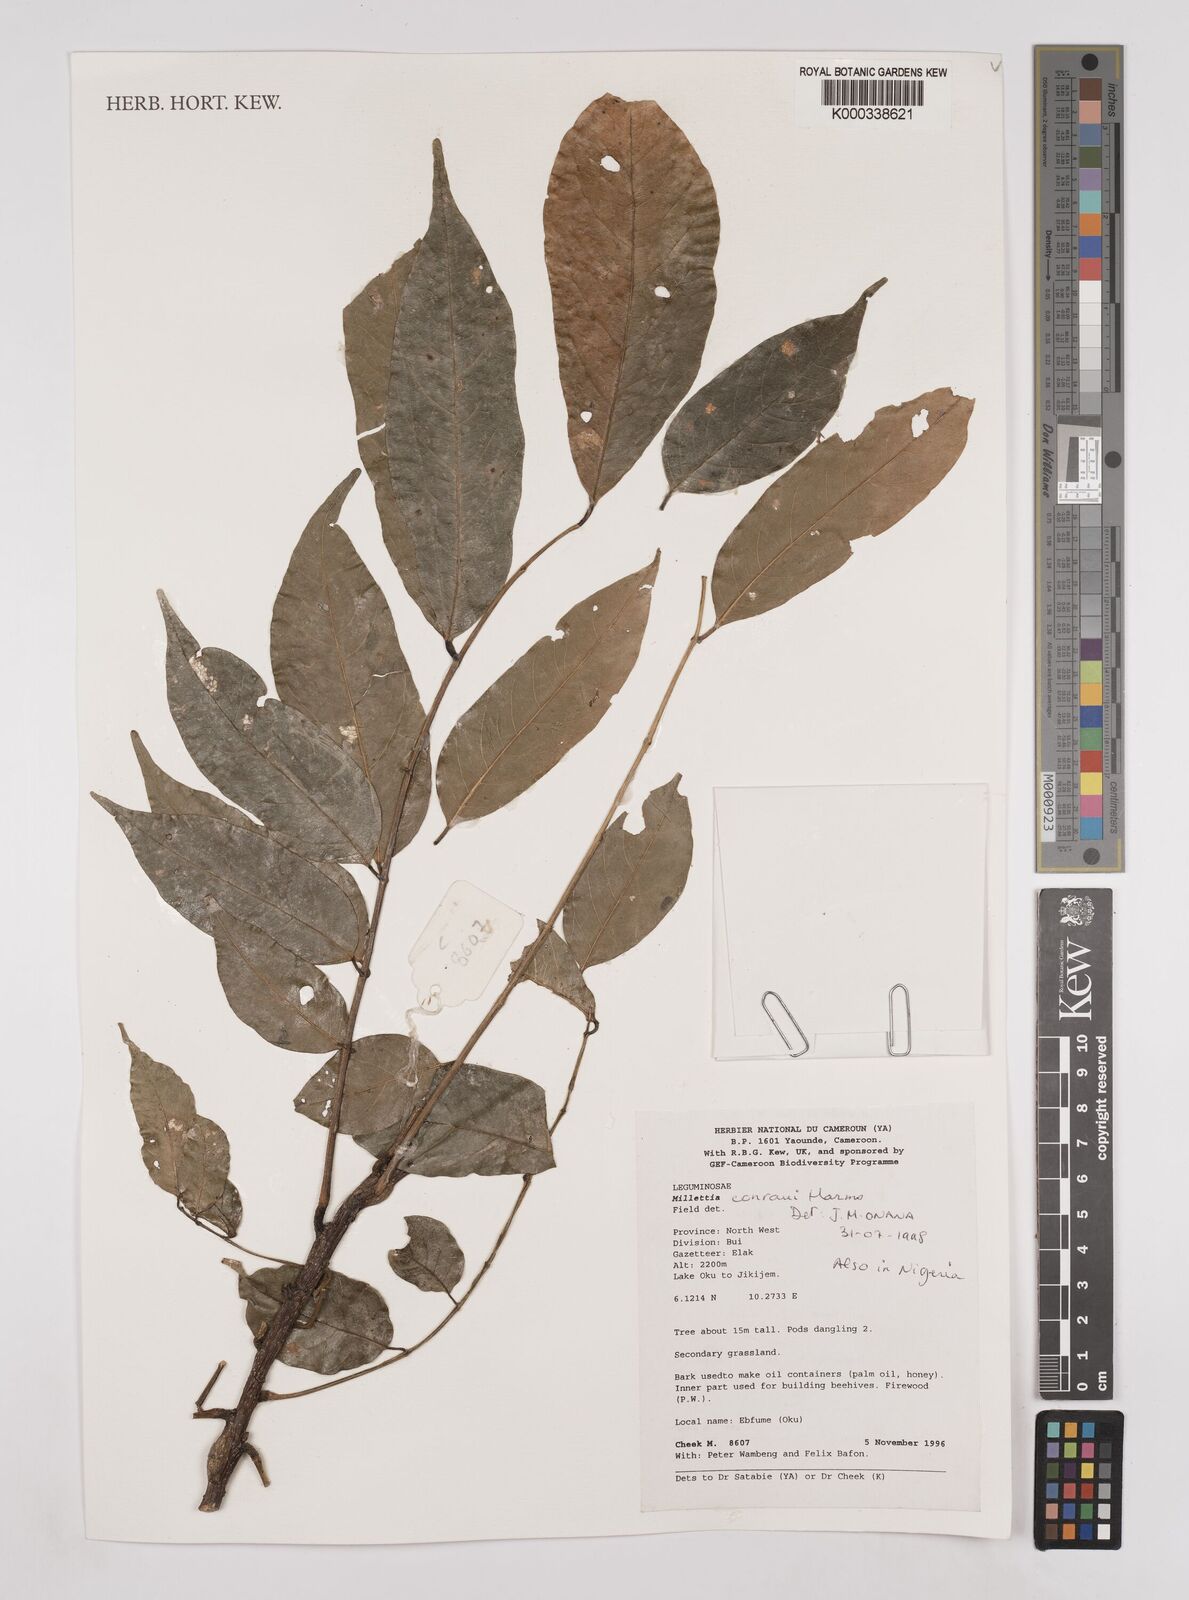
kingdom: Plantae
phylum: Tracheophyta
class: Magnoliopsida
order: Fabales
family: Fabaceae
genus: Millettia
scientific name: Millettia conraui
